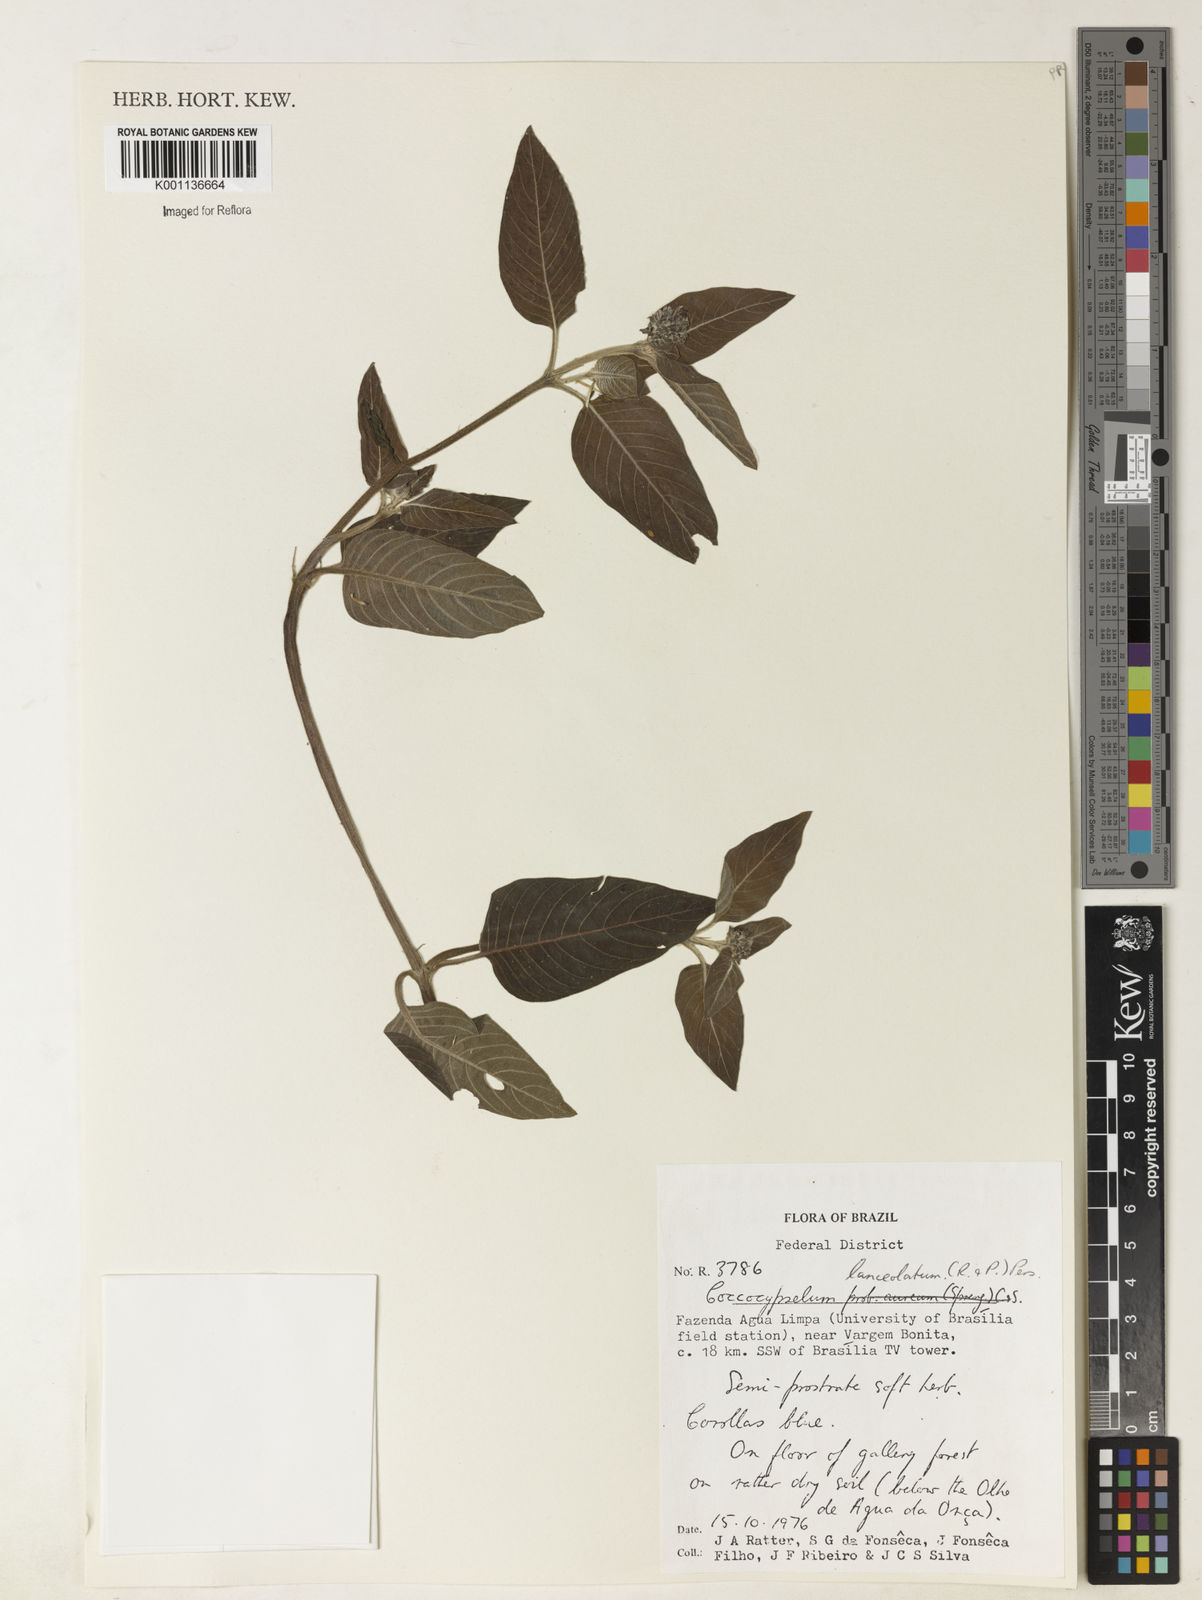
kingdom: Plantae
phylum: Tracheophyta
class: Magnoliopsida
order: Gentianales
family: Rubiaceae
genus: Coccocypselum
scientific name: Coccocypselum lanceolatum
